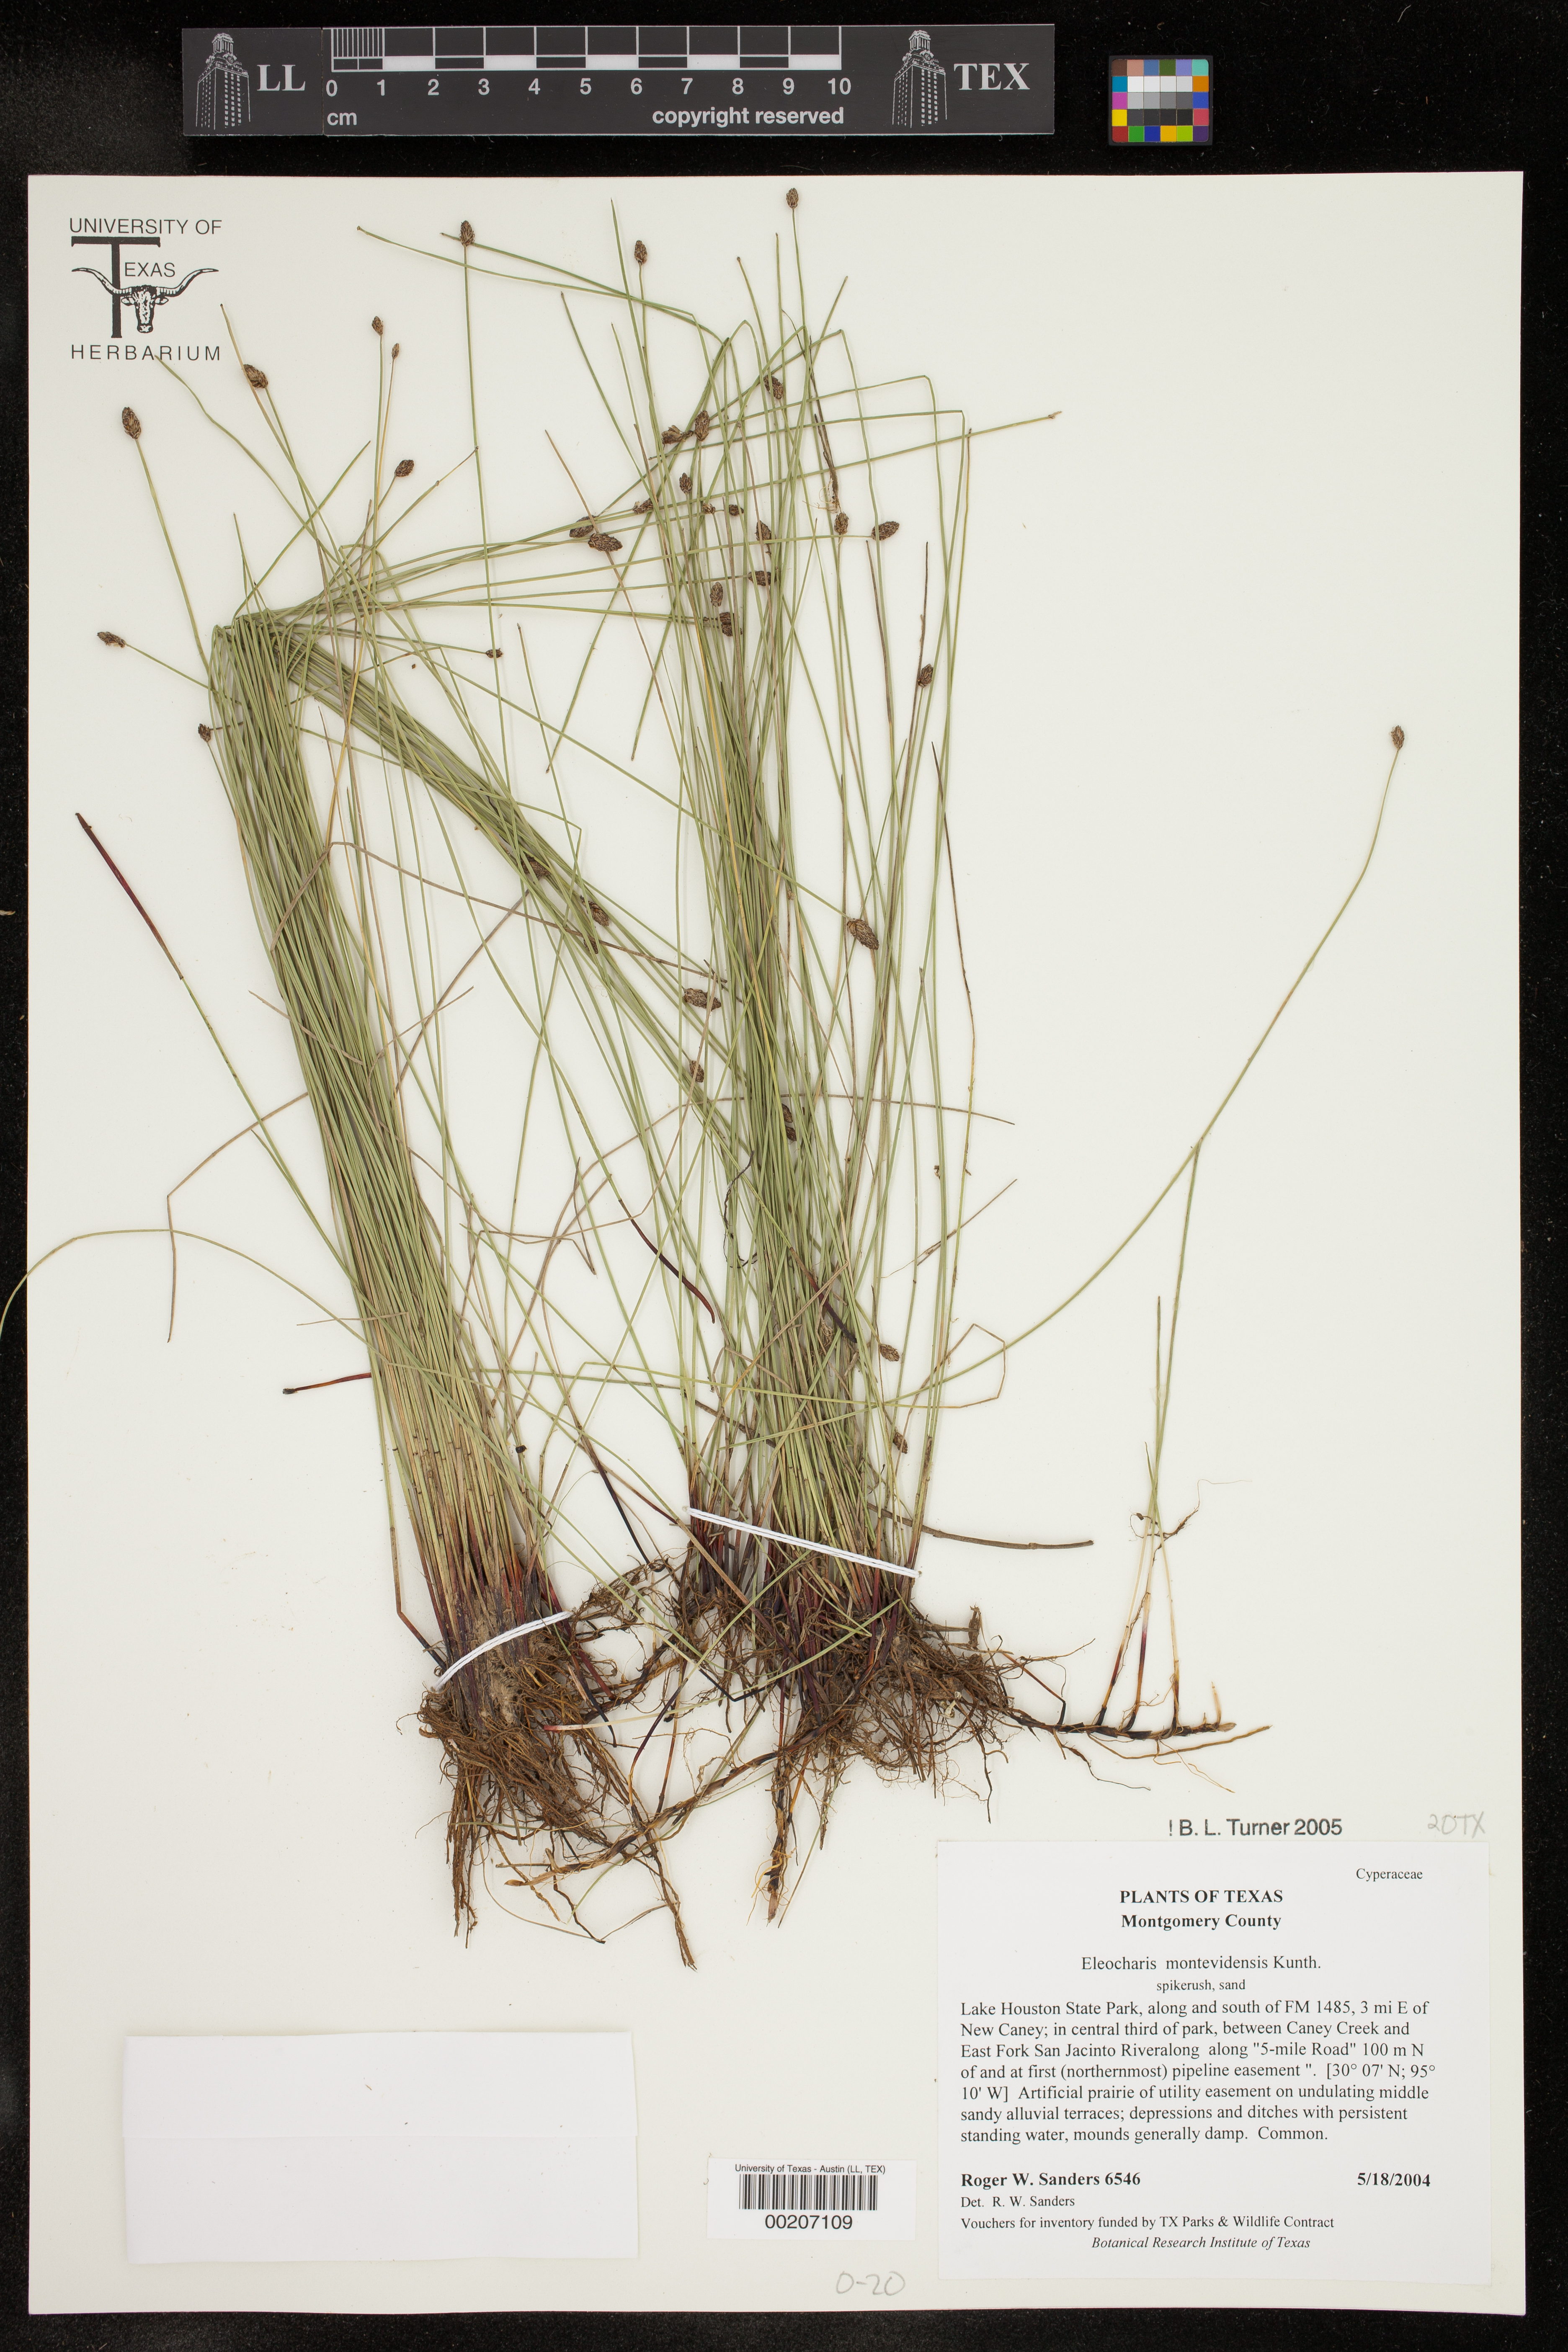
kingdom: Plantae
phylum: Tracheophyta
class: Liliopsida
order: Poales
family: Cyperaceae
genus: Eleocharis
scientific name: Eleocharis montevidensis
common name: Sand spike-rush
